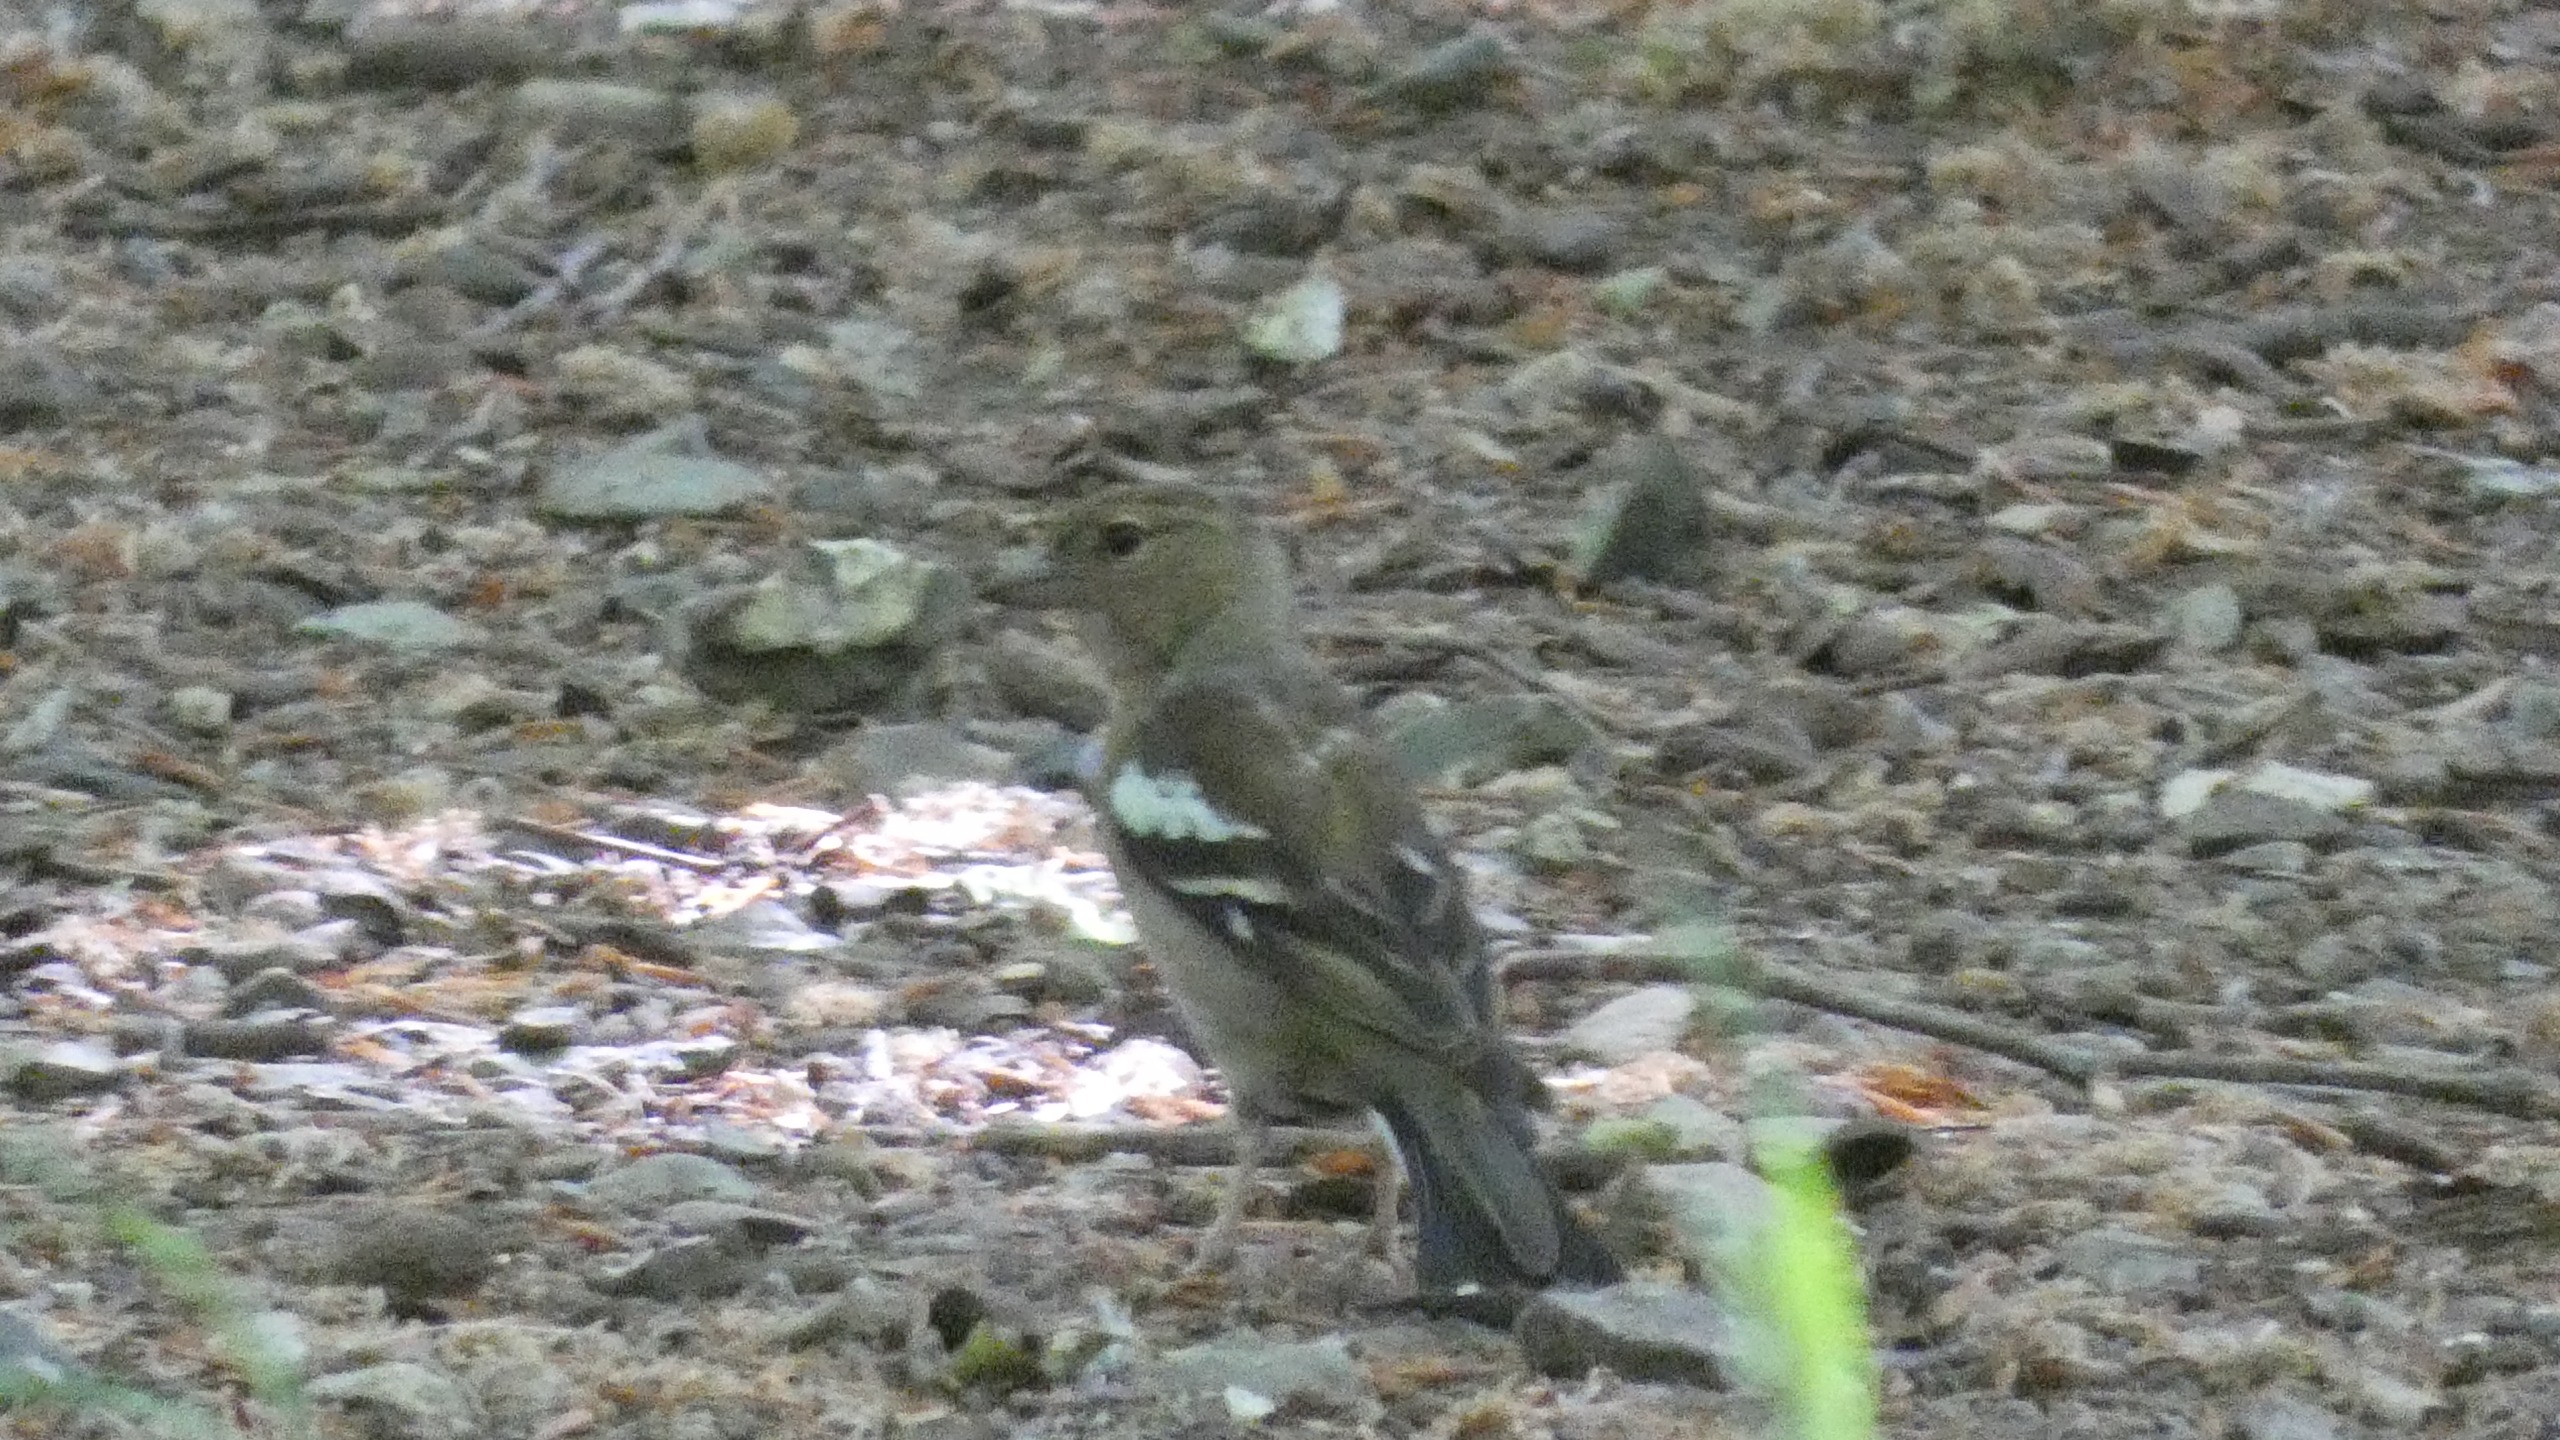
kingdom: Animalia
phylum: Chordata
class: Aves
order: Passeriformes
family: Fringillidae
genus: Fringilla
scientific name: Fringilla coelebs
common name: Bogfinke
